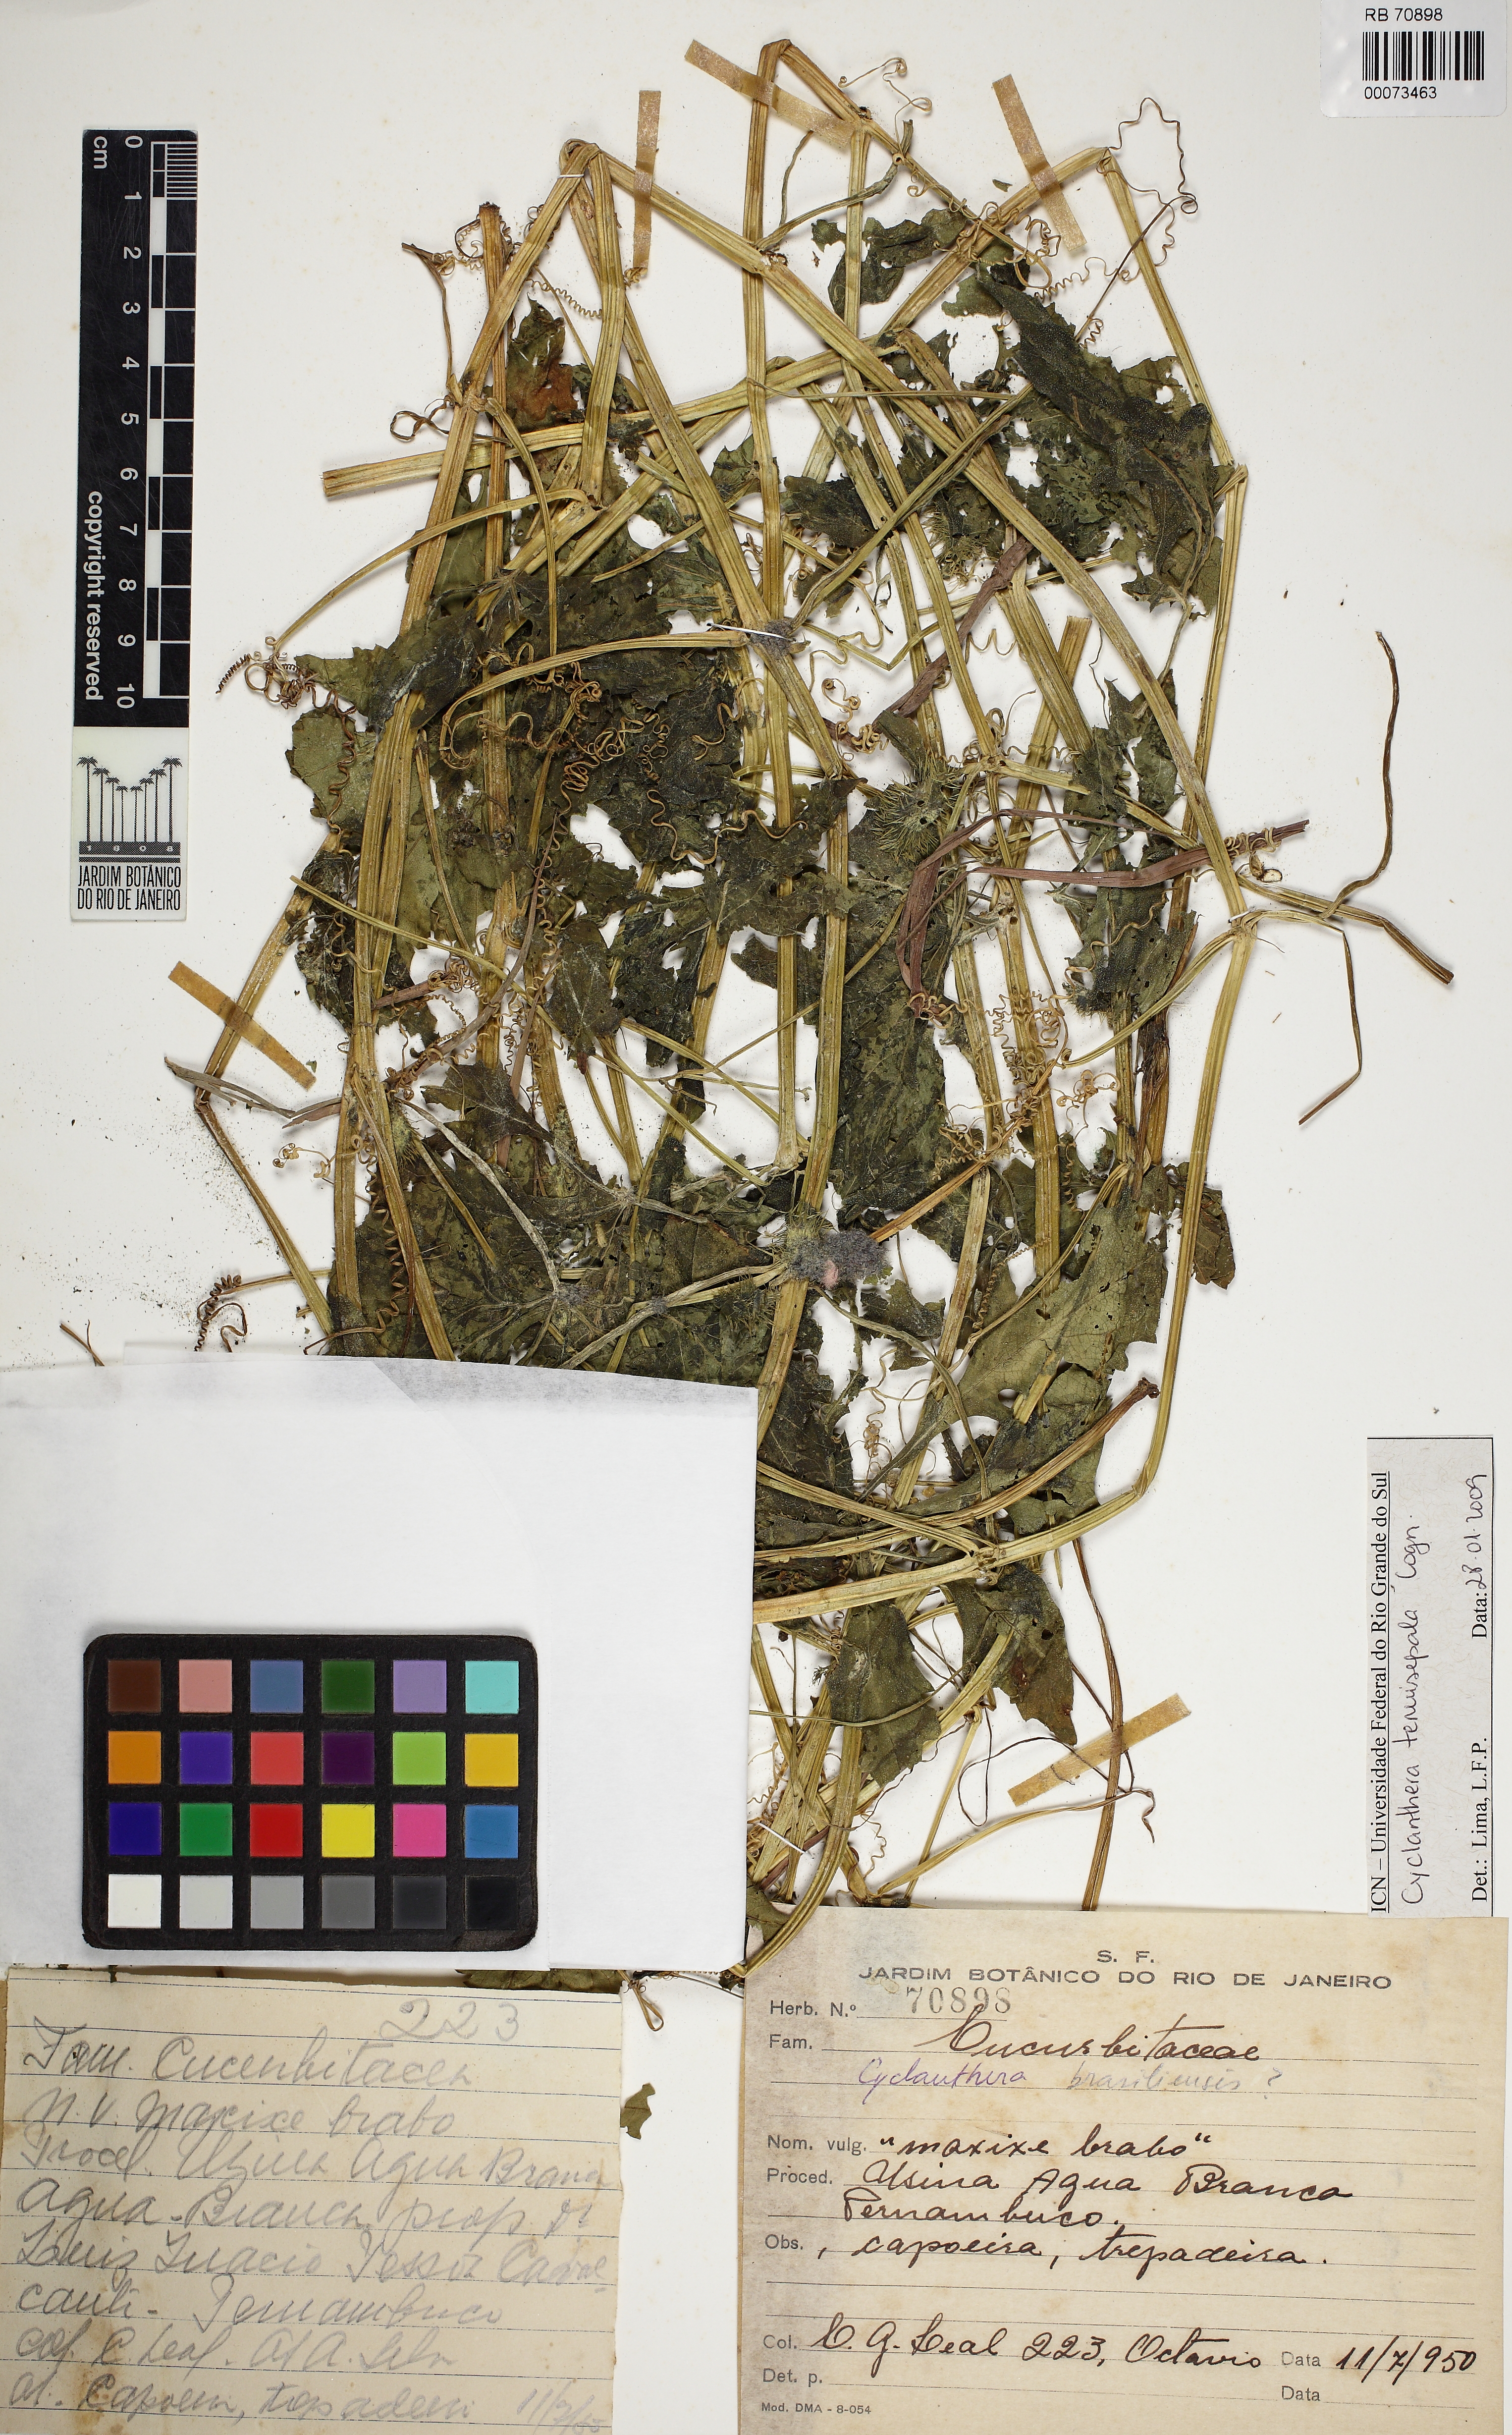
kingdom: Plantae
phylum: Tracheophyta
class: Magnoliopsida
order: Cucurbitales
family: Cucurbitaceae
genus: Cyclanthera
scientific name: Cyclanthera tenuisepala
